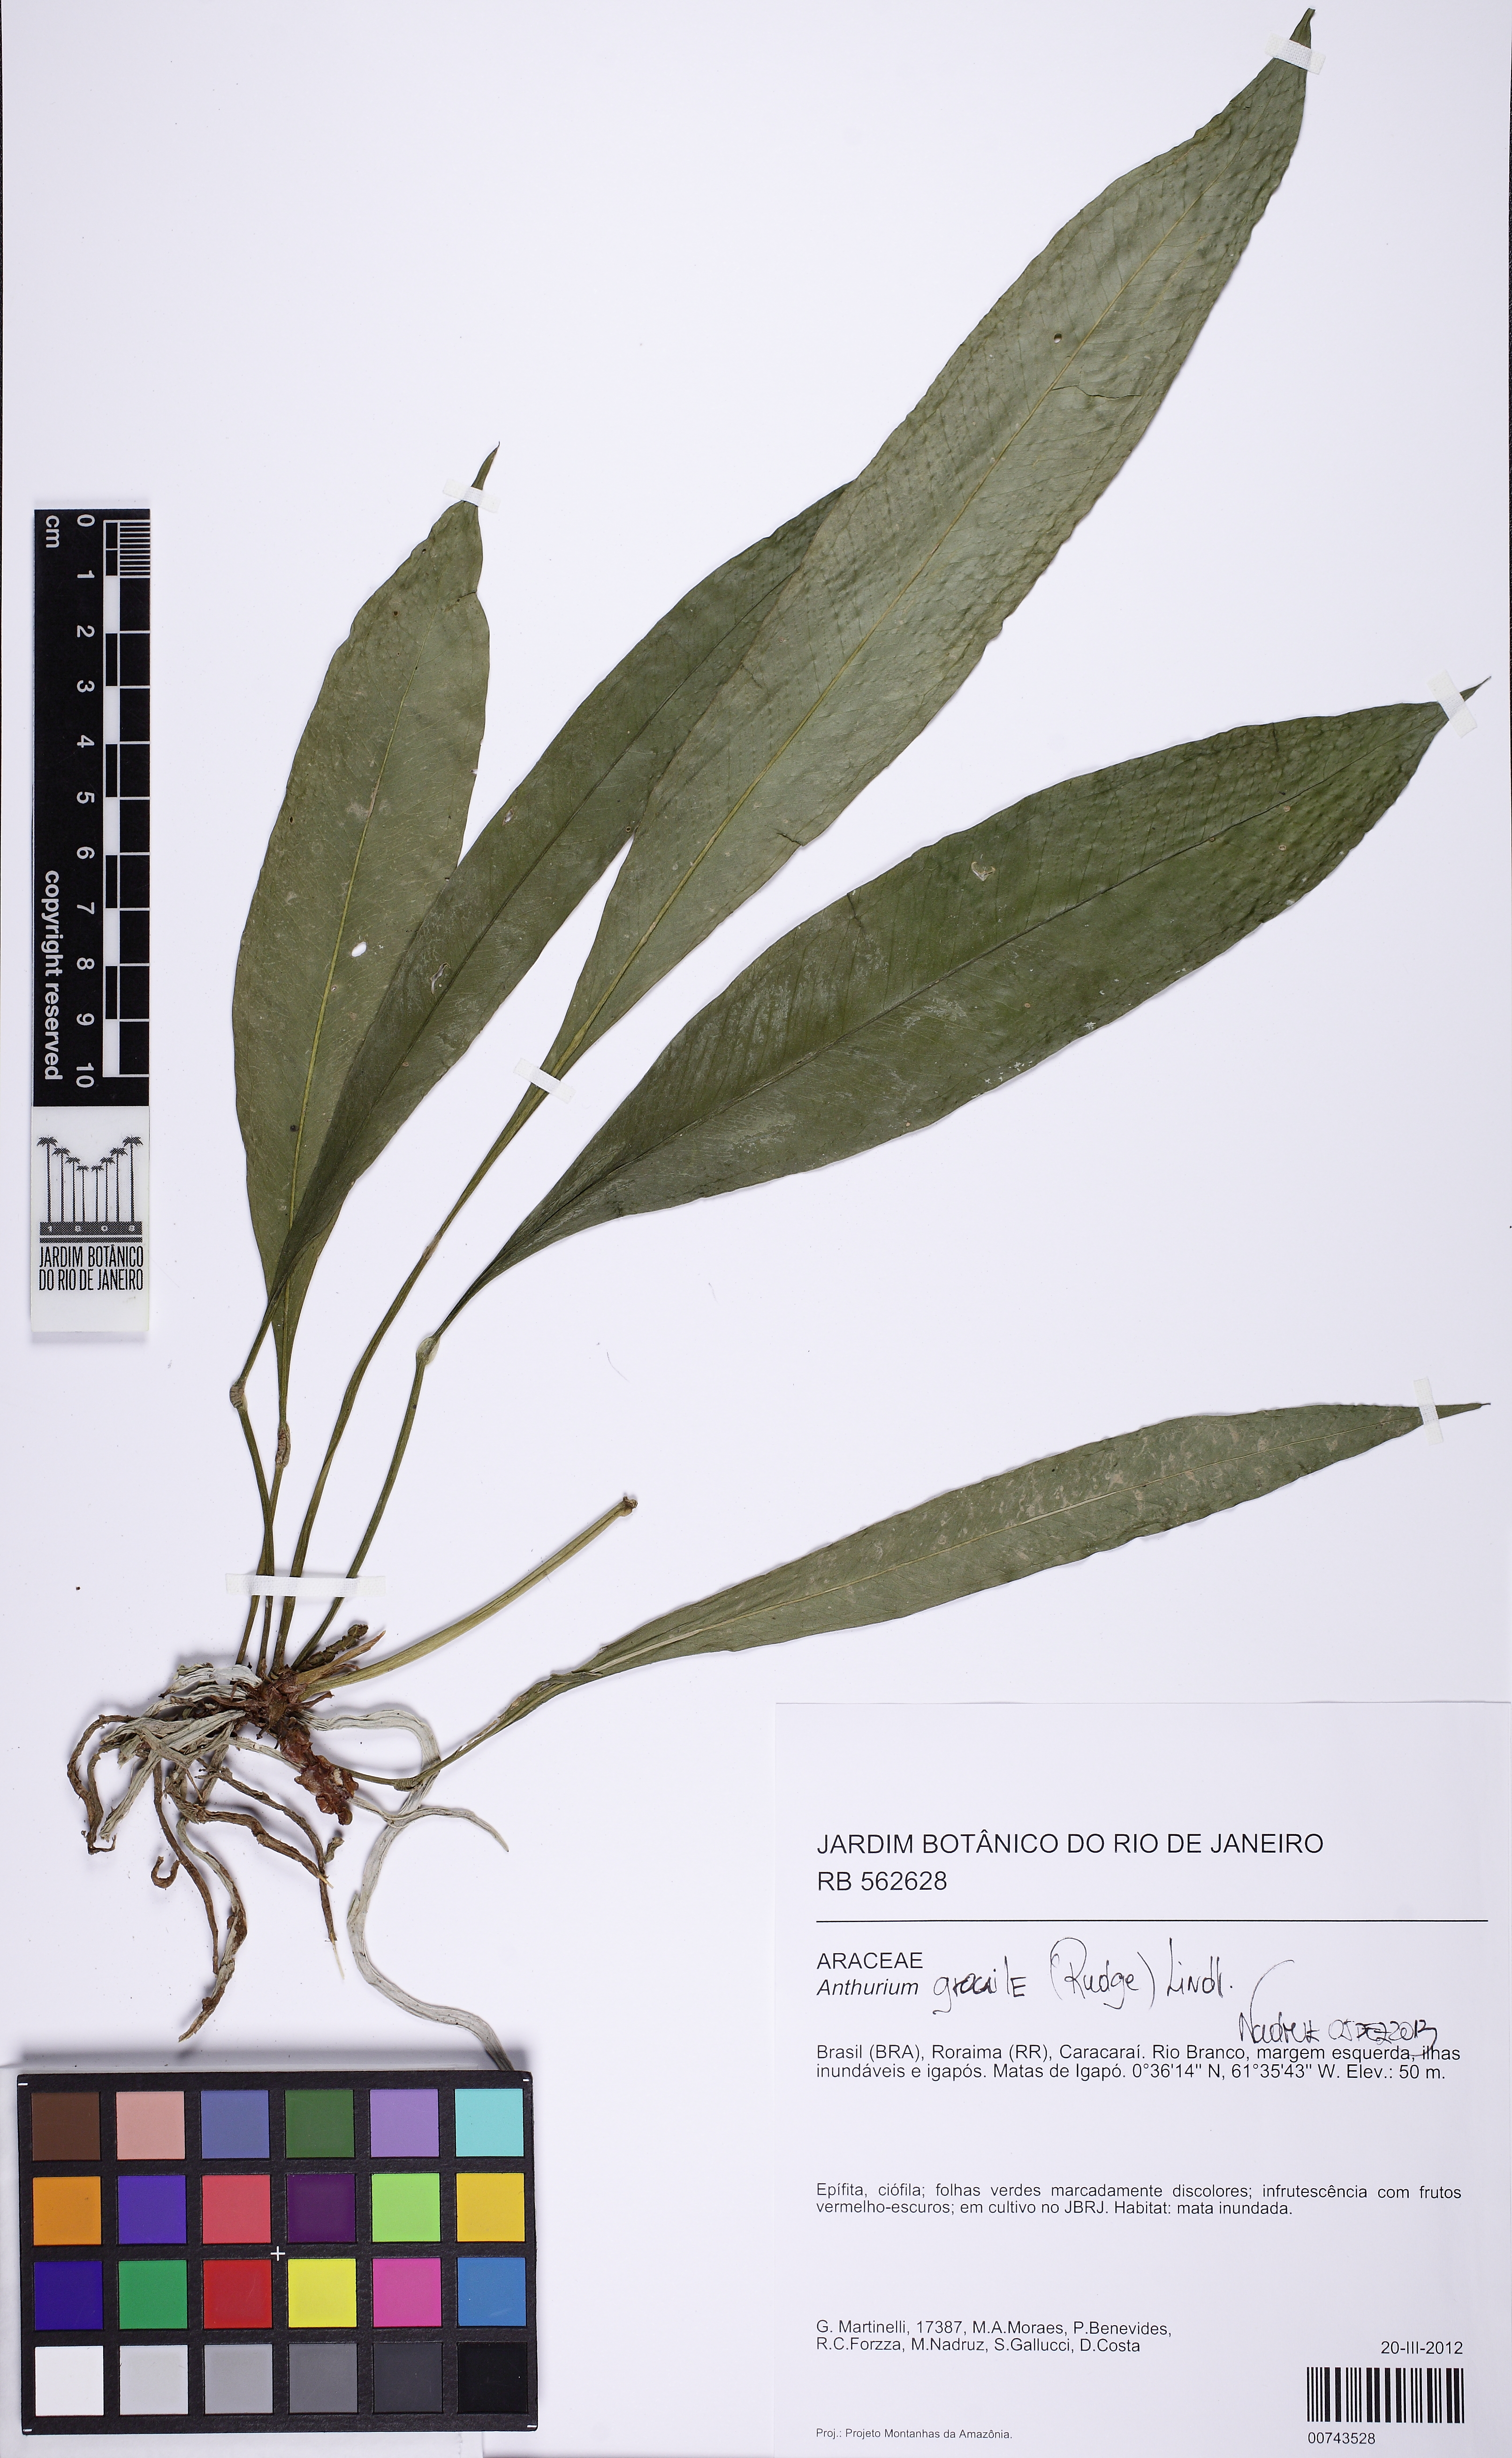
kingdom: Plantae
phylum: Tracheophyta
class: Liliopsida
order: Alismatales
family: Araceae
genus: Anthurium
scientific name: Anthurium gracile
